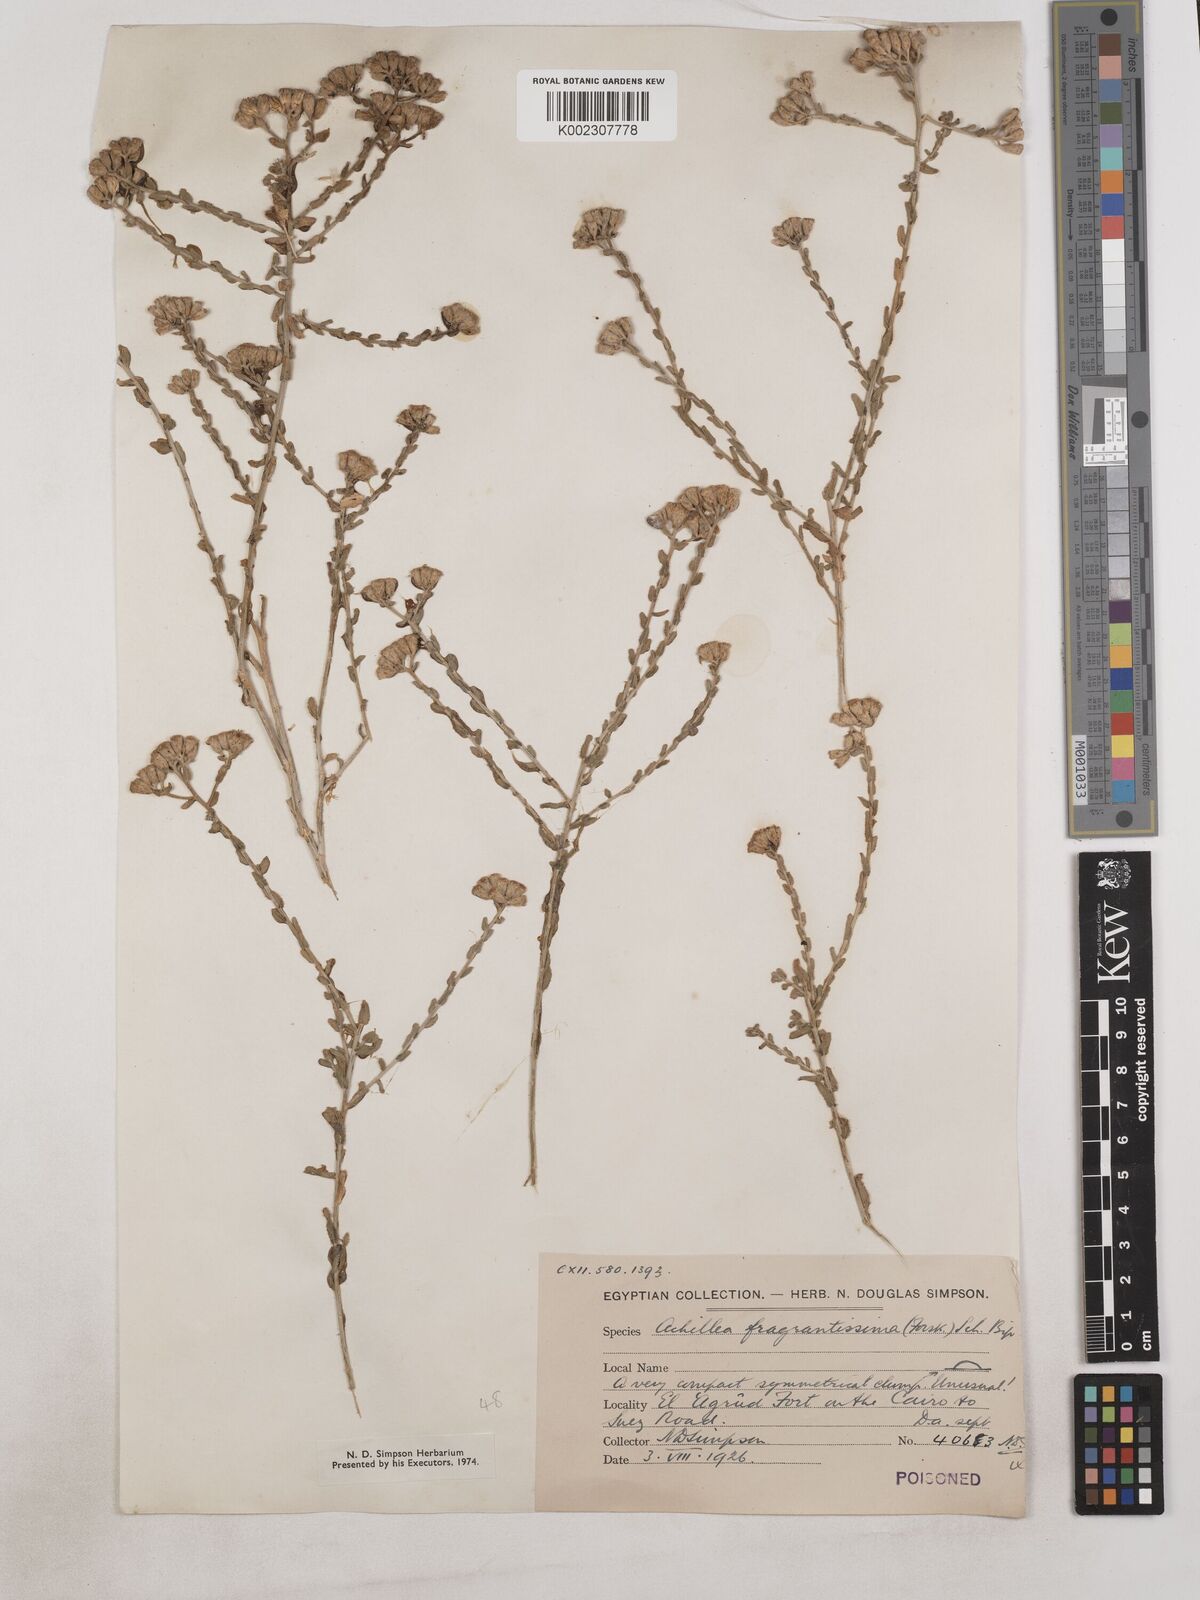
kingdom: Plantae
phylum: Tracheophyta
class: Magnoliopsida
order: Asterales
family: Asteraceae
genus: Achillea
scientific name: Achillea fragrantissima
